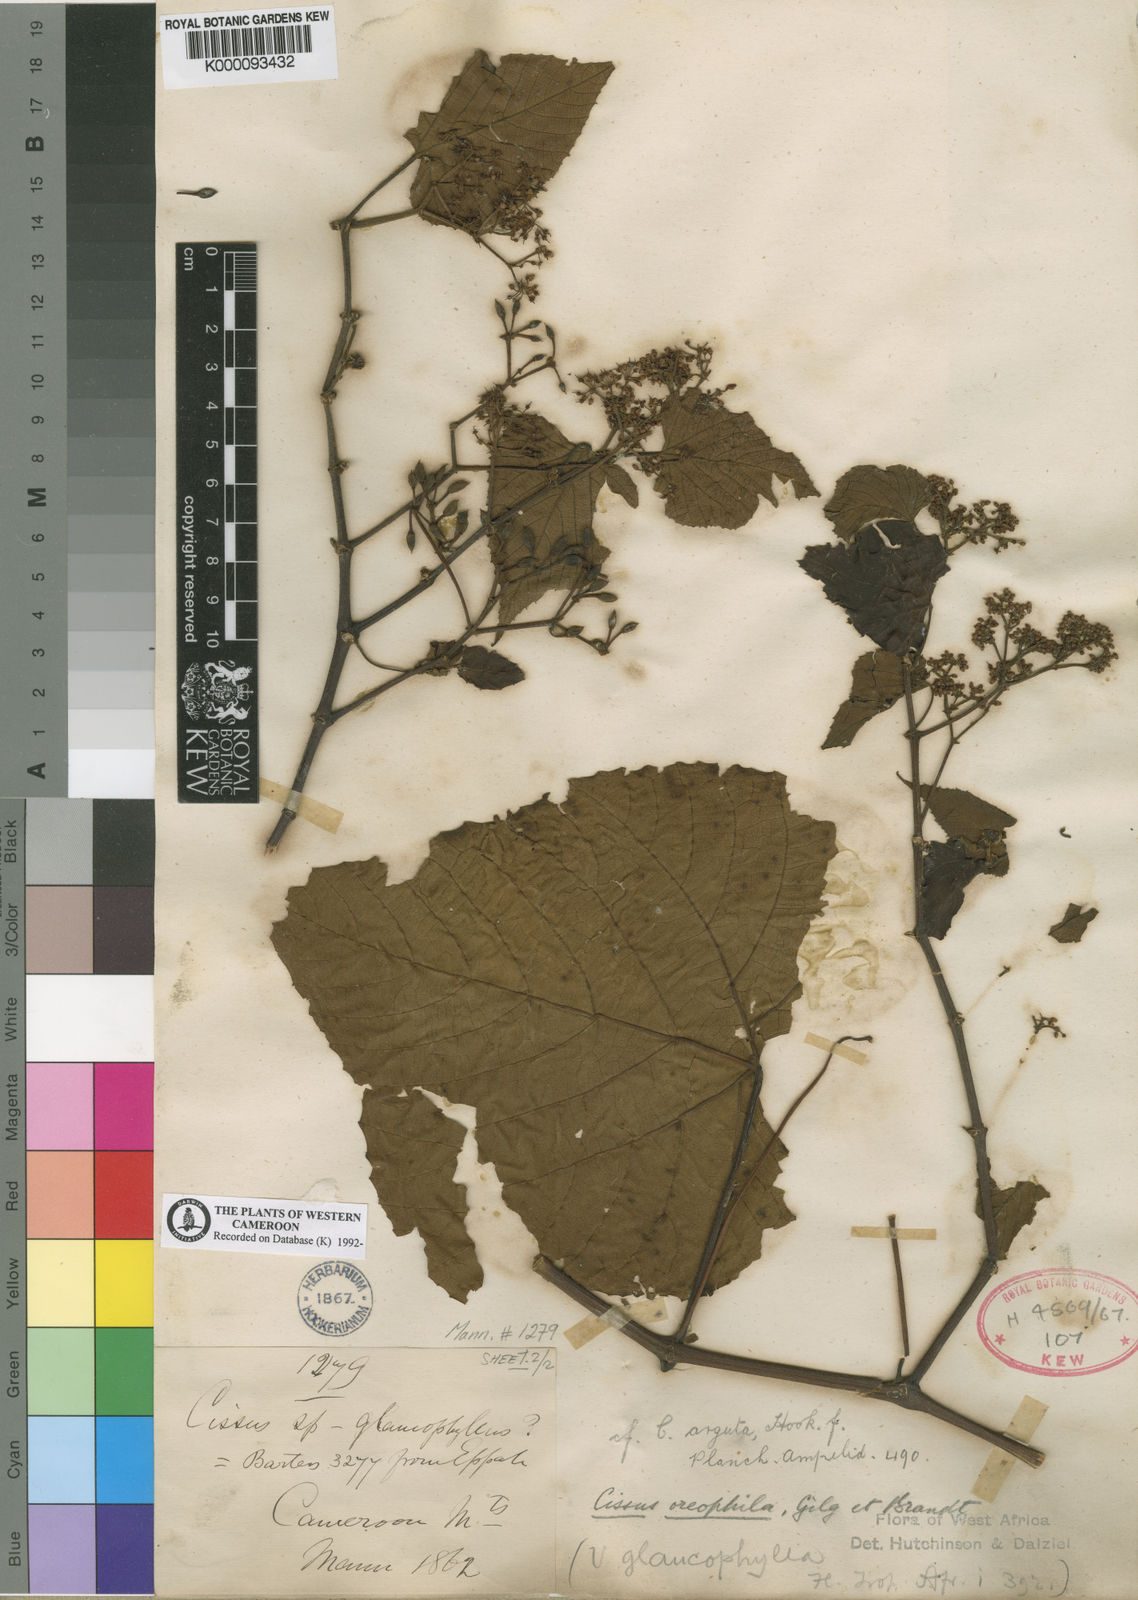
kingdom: Plantae
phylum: Tracheophyta
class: Magnoliopsida
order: Vitales
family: Vitaceae
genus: Cissus
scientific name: Cissus oreophila
